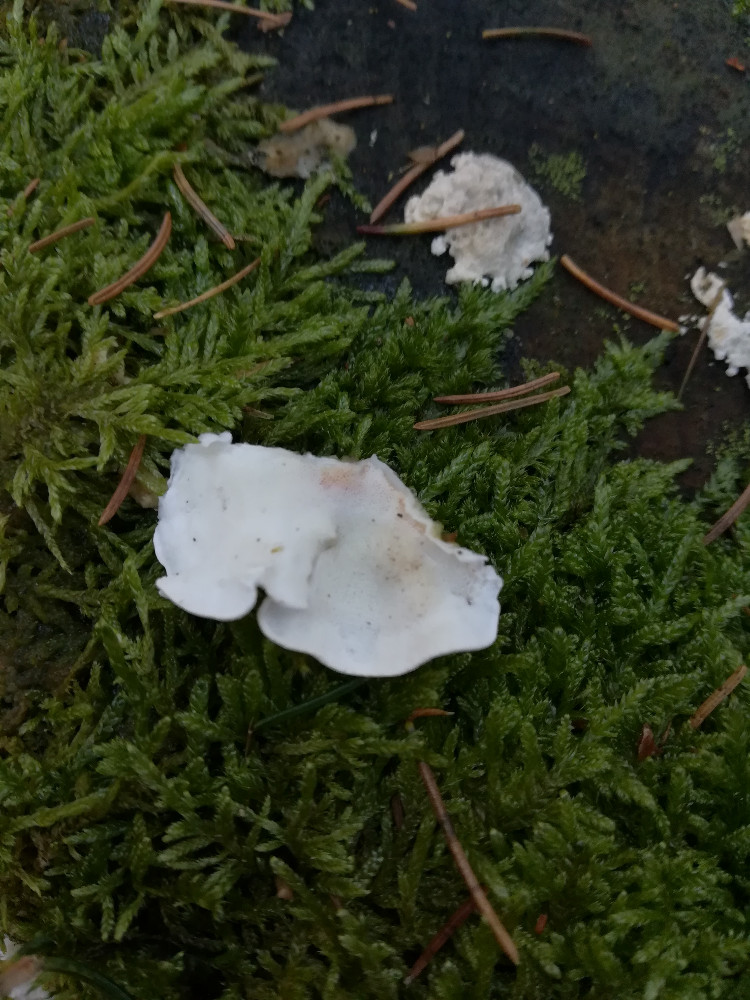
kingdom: Fungi
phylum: Basidiomycota
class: Agaricomycetes
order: Polyporales
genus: Amaropostia
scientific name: Amaropostia stiptica
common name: bitter kødporesvamp
